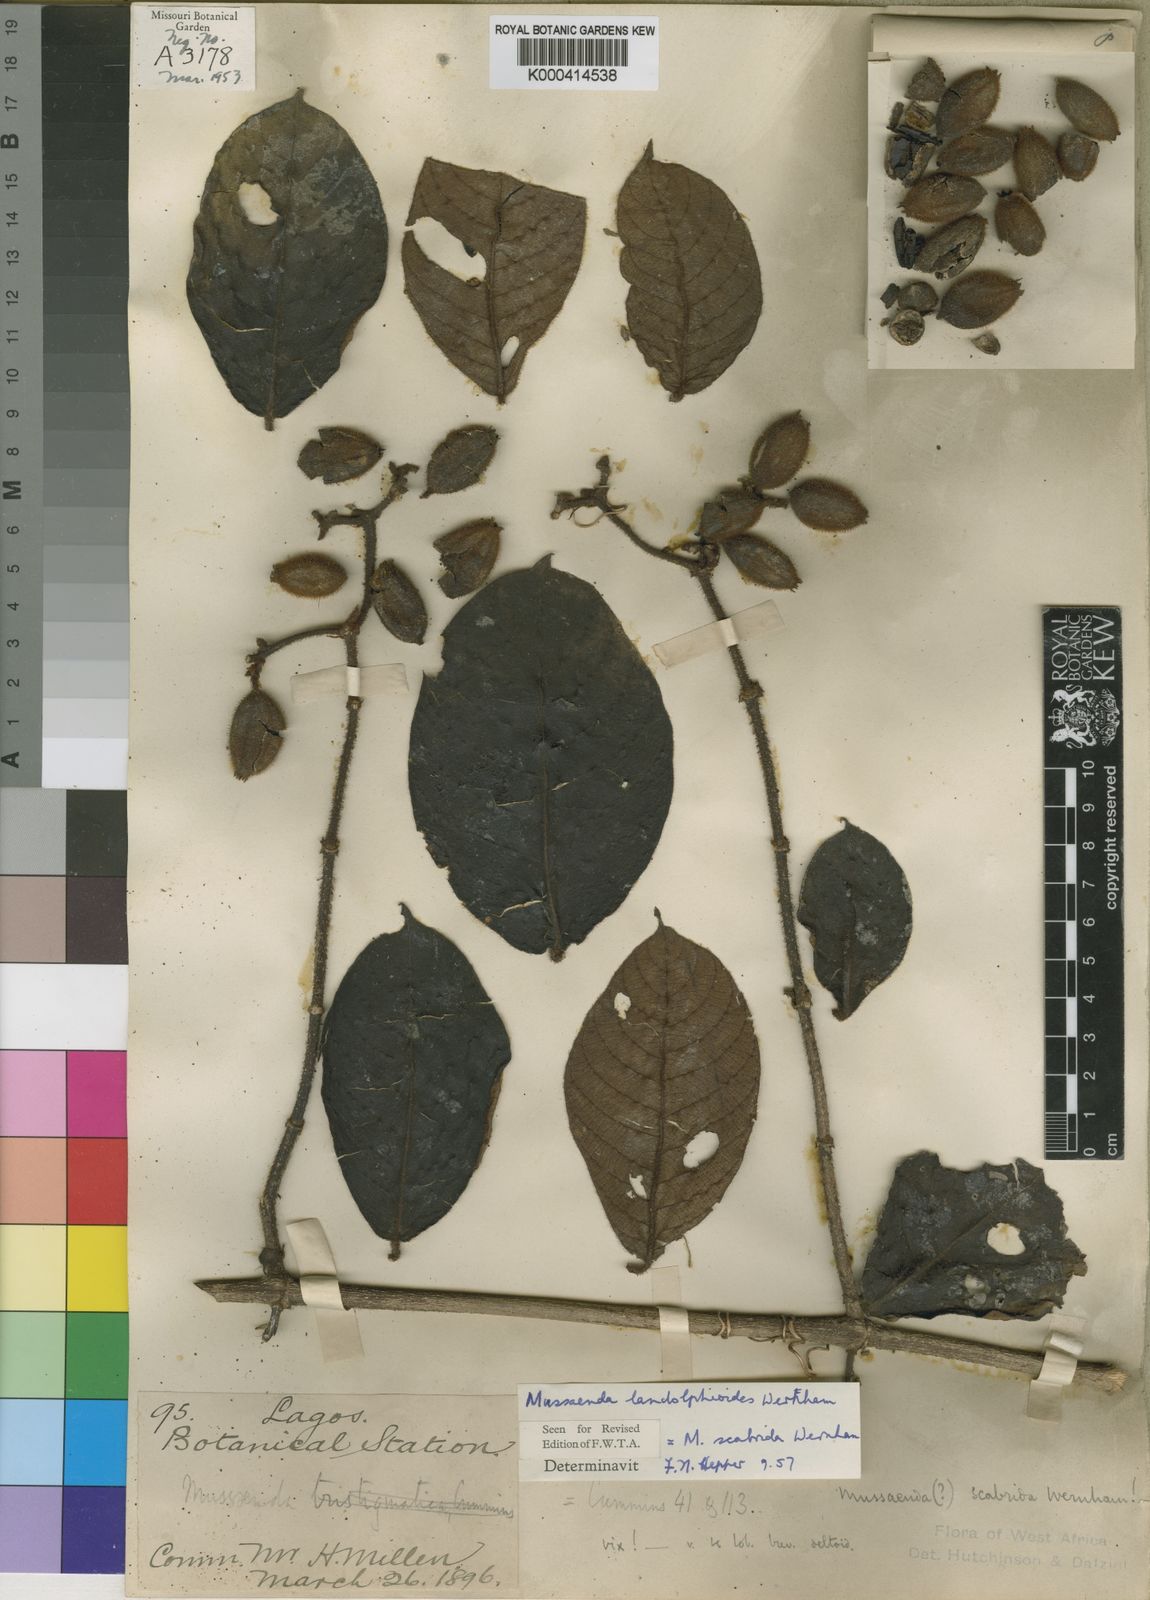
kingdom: Plantae
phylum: Tracheophyta
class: Magnoliopsida
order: Gentianales
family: Rubiaceae
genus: Mussaenda
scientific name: Mussaenda landolphioides
